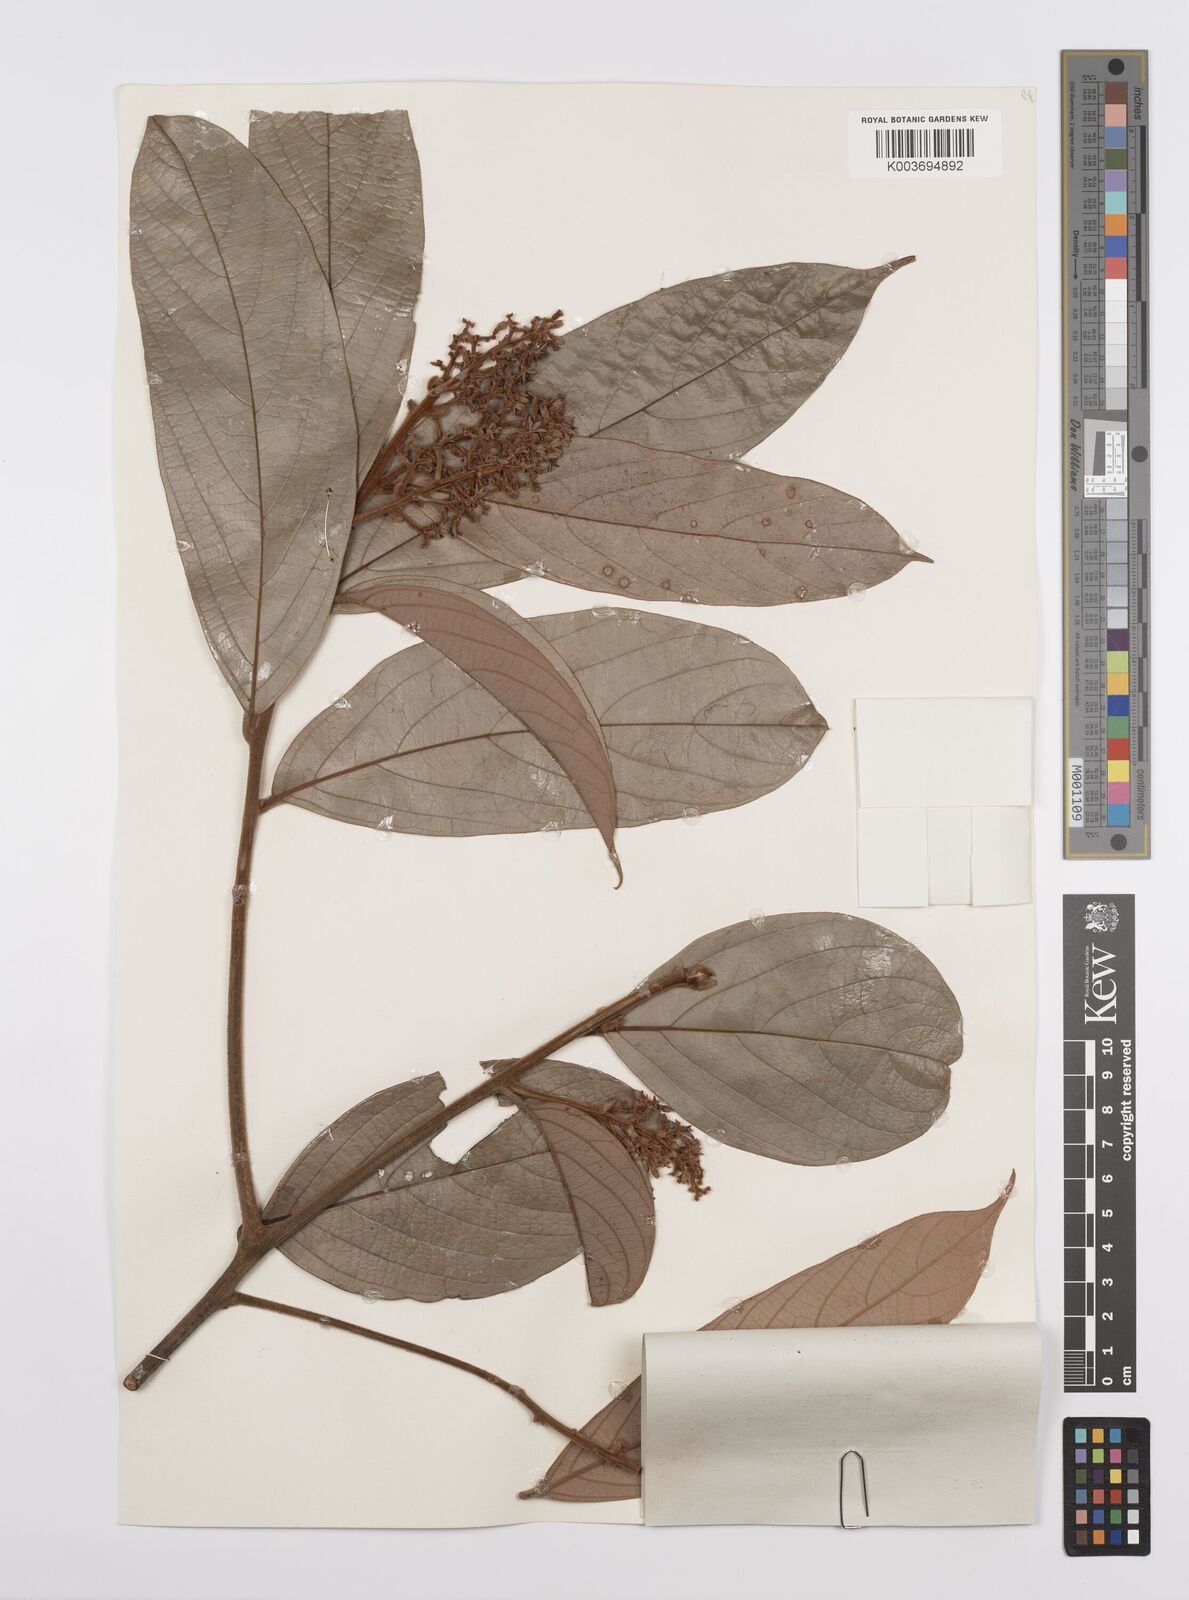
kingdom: Plantae
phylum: Tracheophyta
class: Magnoliopsida
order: Laurales
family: Lauraceae
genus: Cryptocarya
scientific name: Cryptocarya
